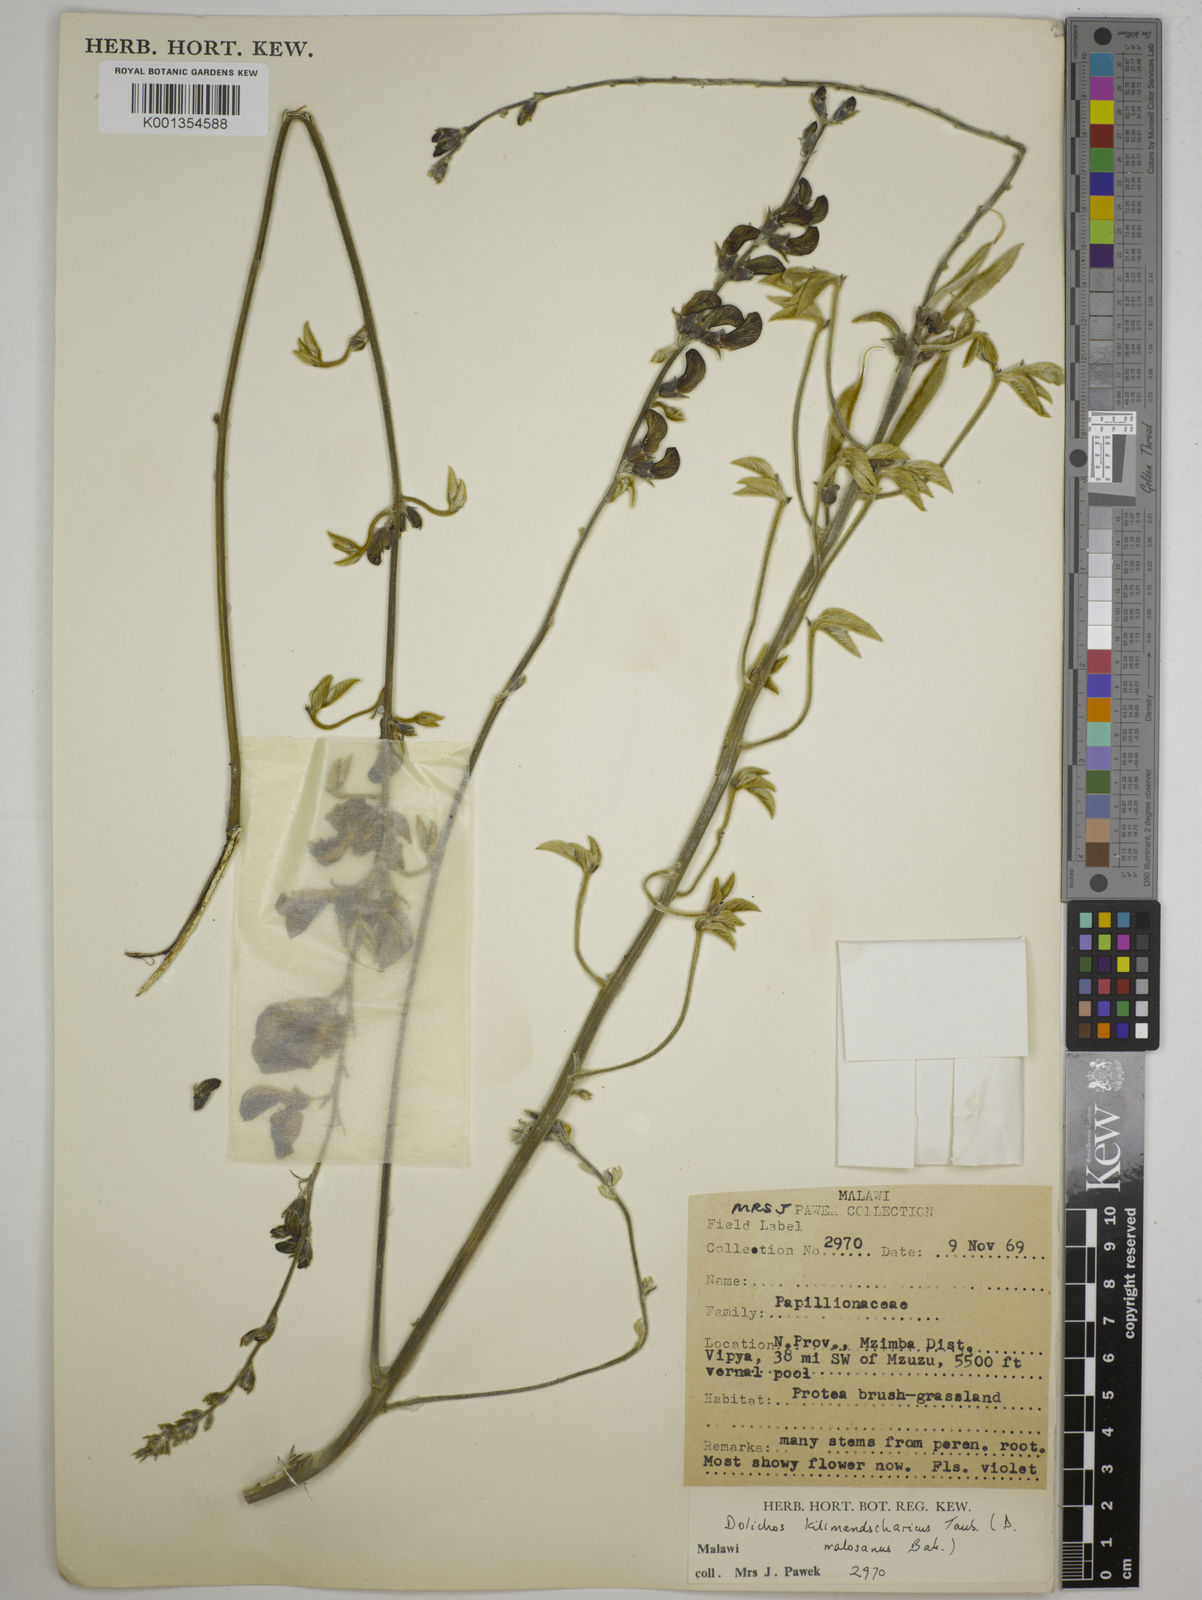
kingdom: Plantae
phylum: Tracheophyta
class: Magnoliopsida
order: Fabales
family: Fabaceae
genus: Dolichos
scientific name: Dolichos kilimandscharicus
